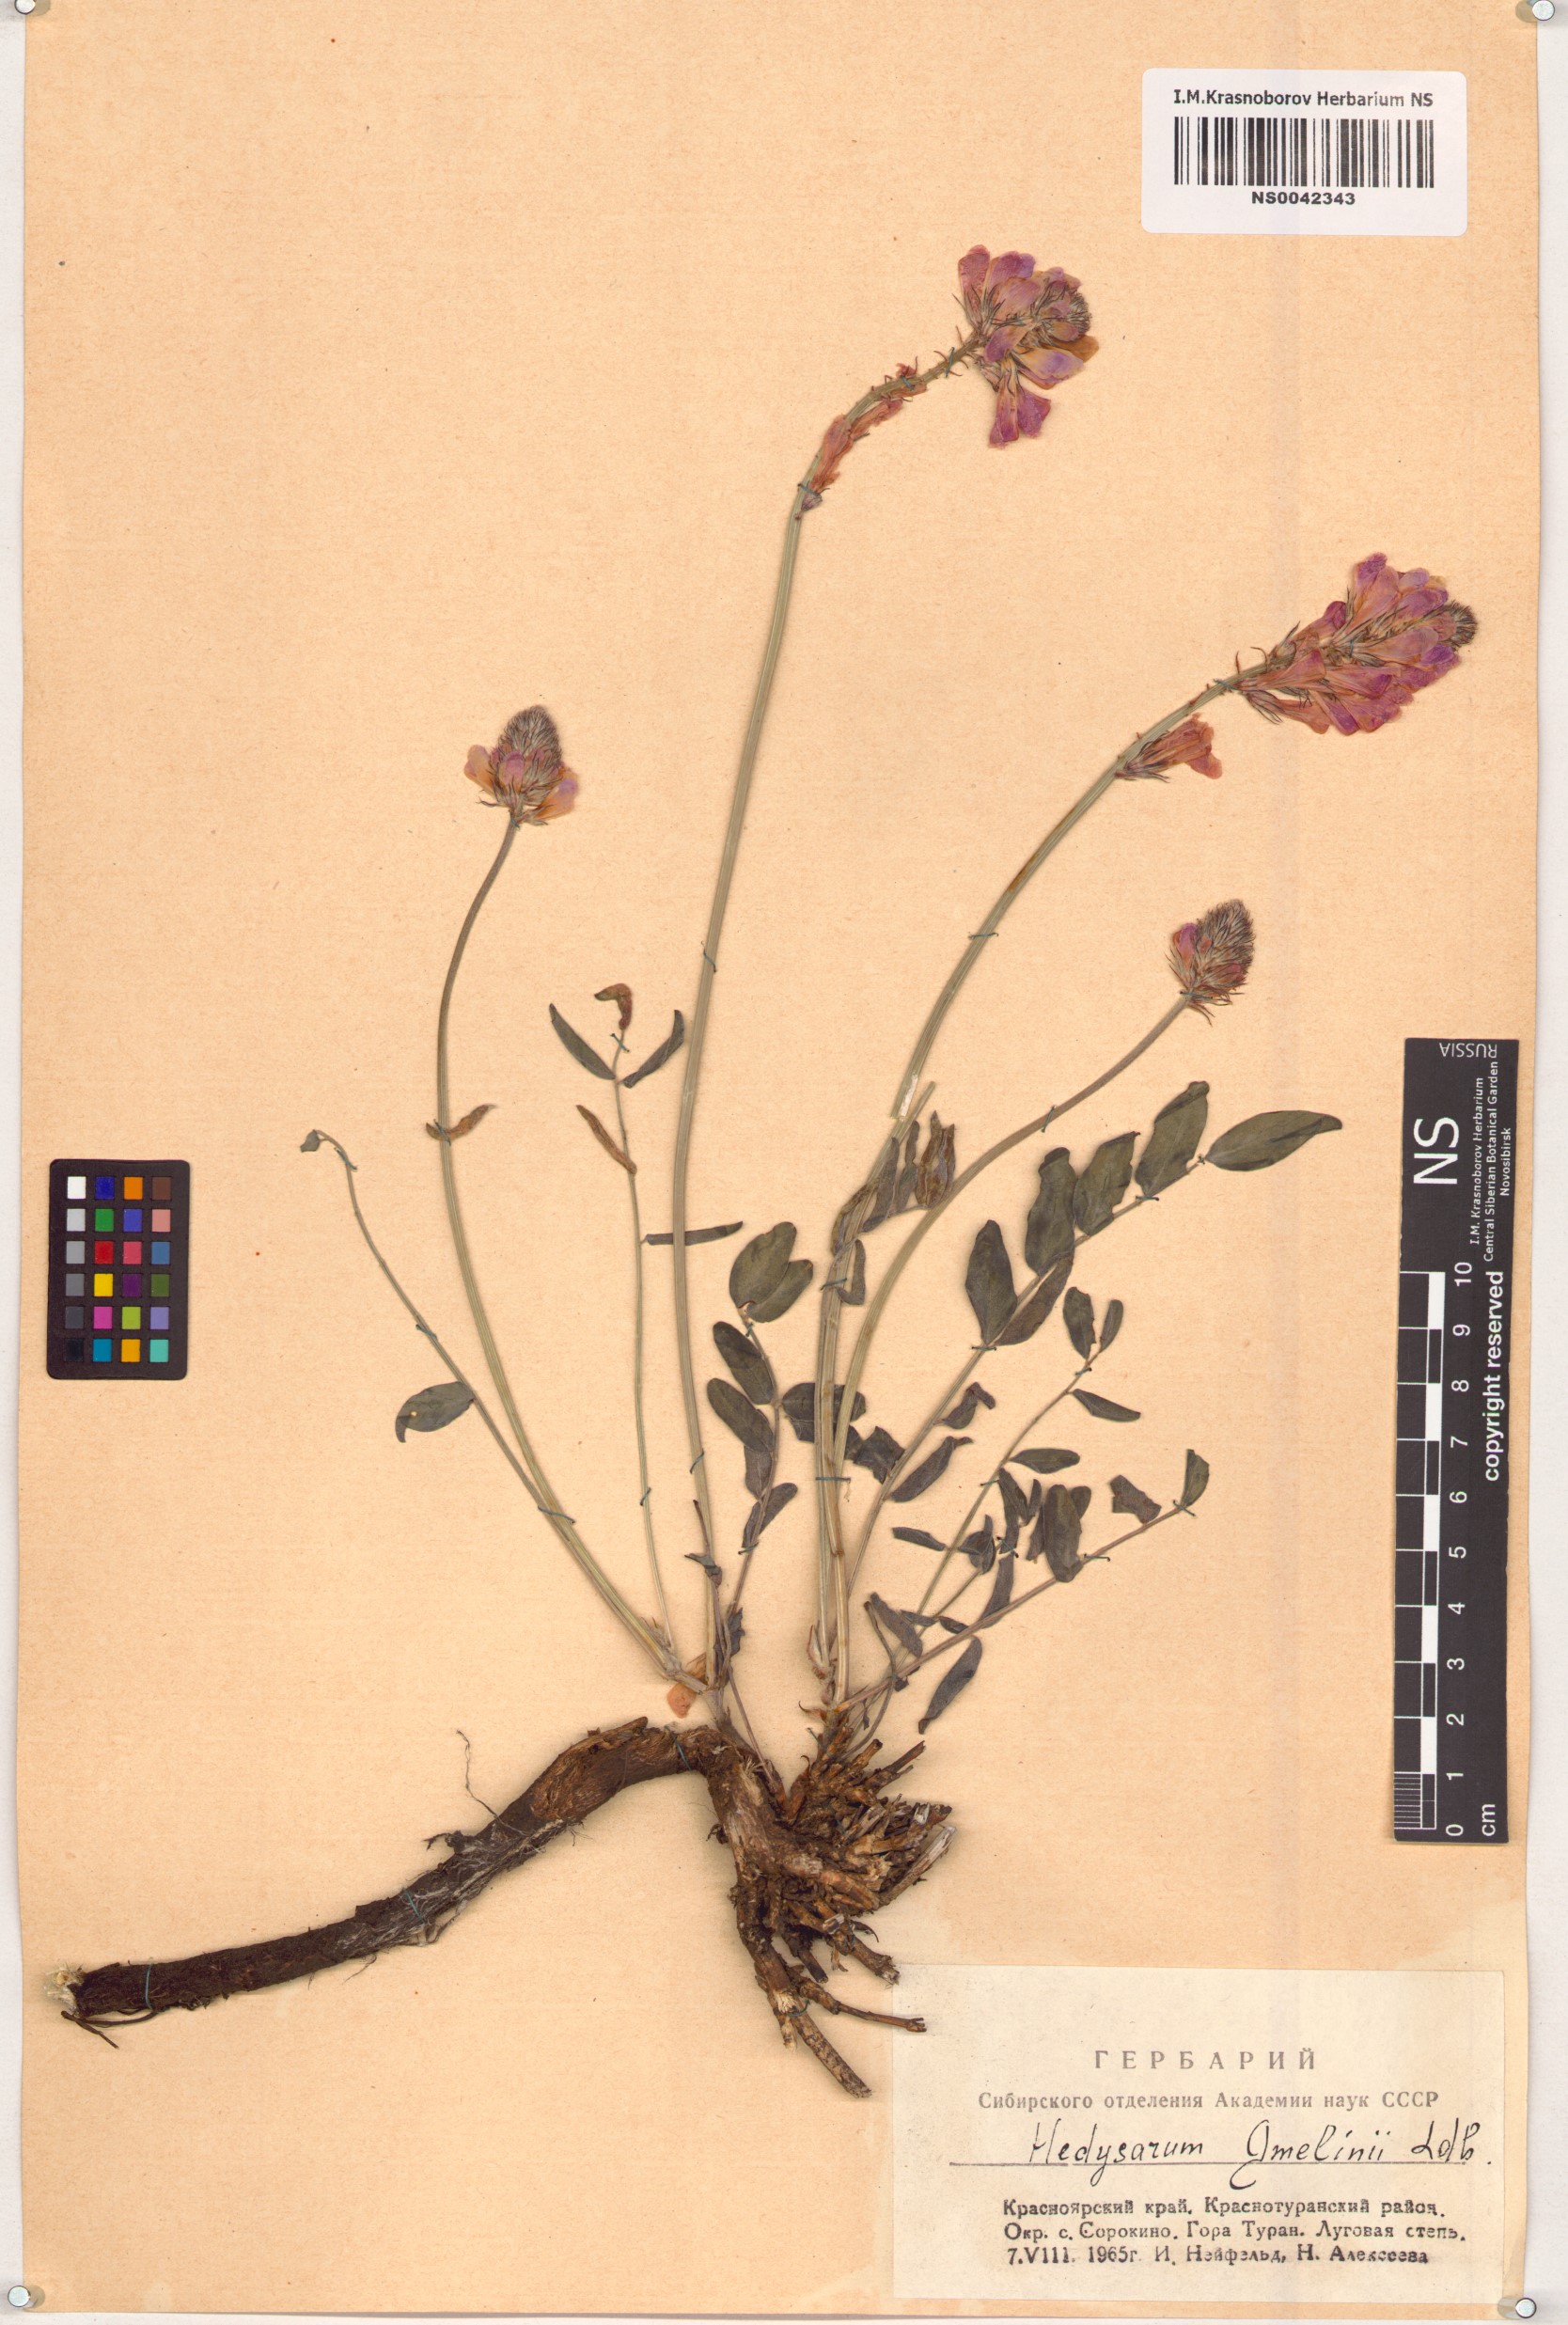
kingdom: Plantae
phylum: Tracheophyta
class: Magnoliopsida
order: Fabales
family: Fabaceae
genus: Hedysarum
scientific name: Hedysarum gmelinii
